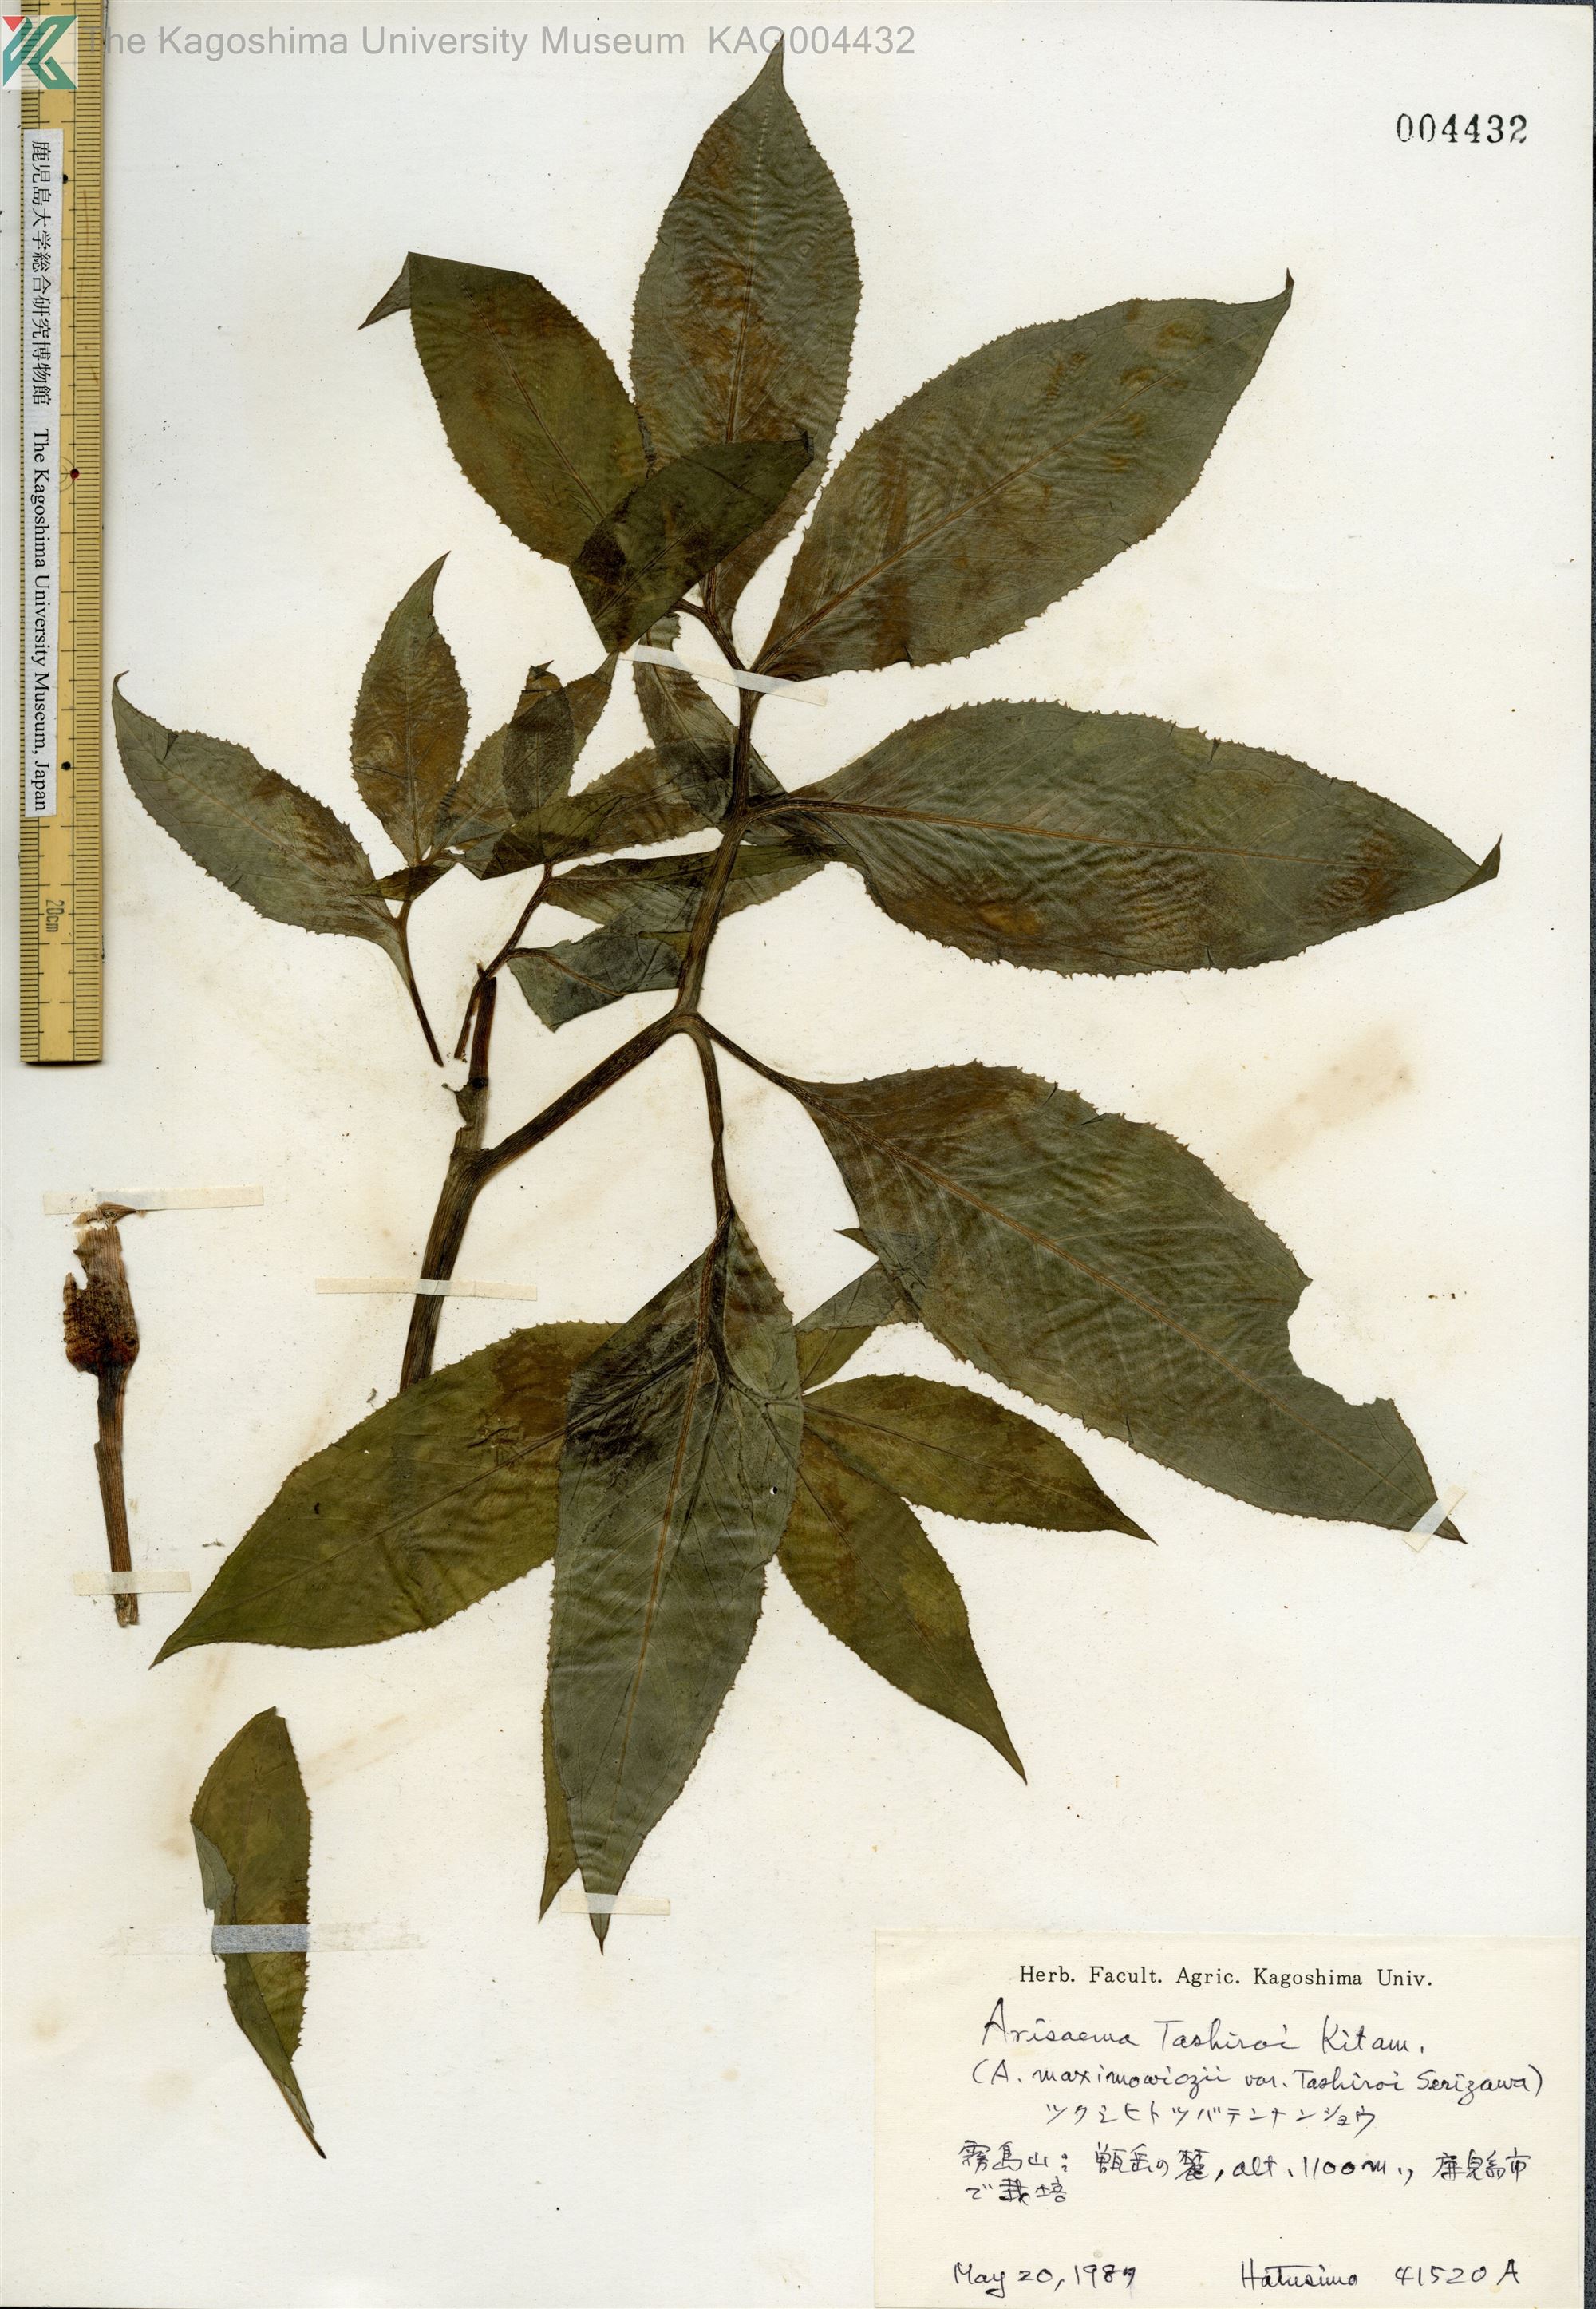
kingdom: Plantae
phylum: Tracheophyta
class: Liliopsida
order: Alismatales
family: Araceae
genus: Arisaema
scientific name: Arisaema tashiroi
